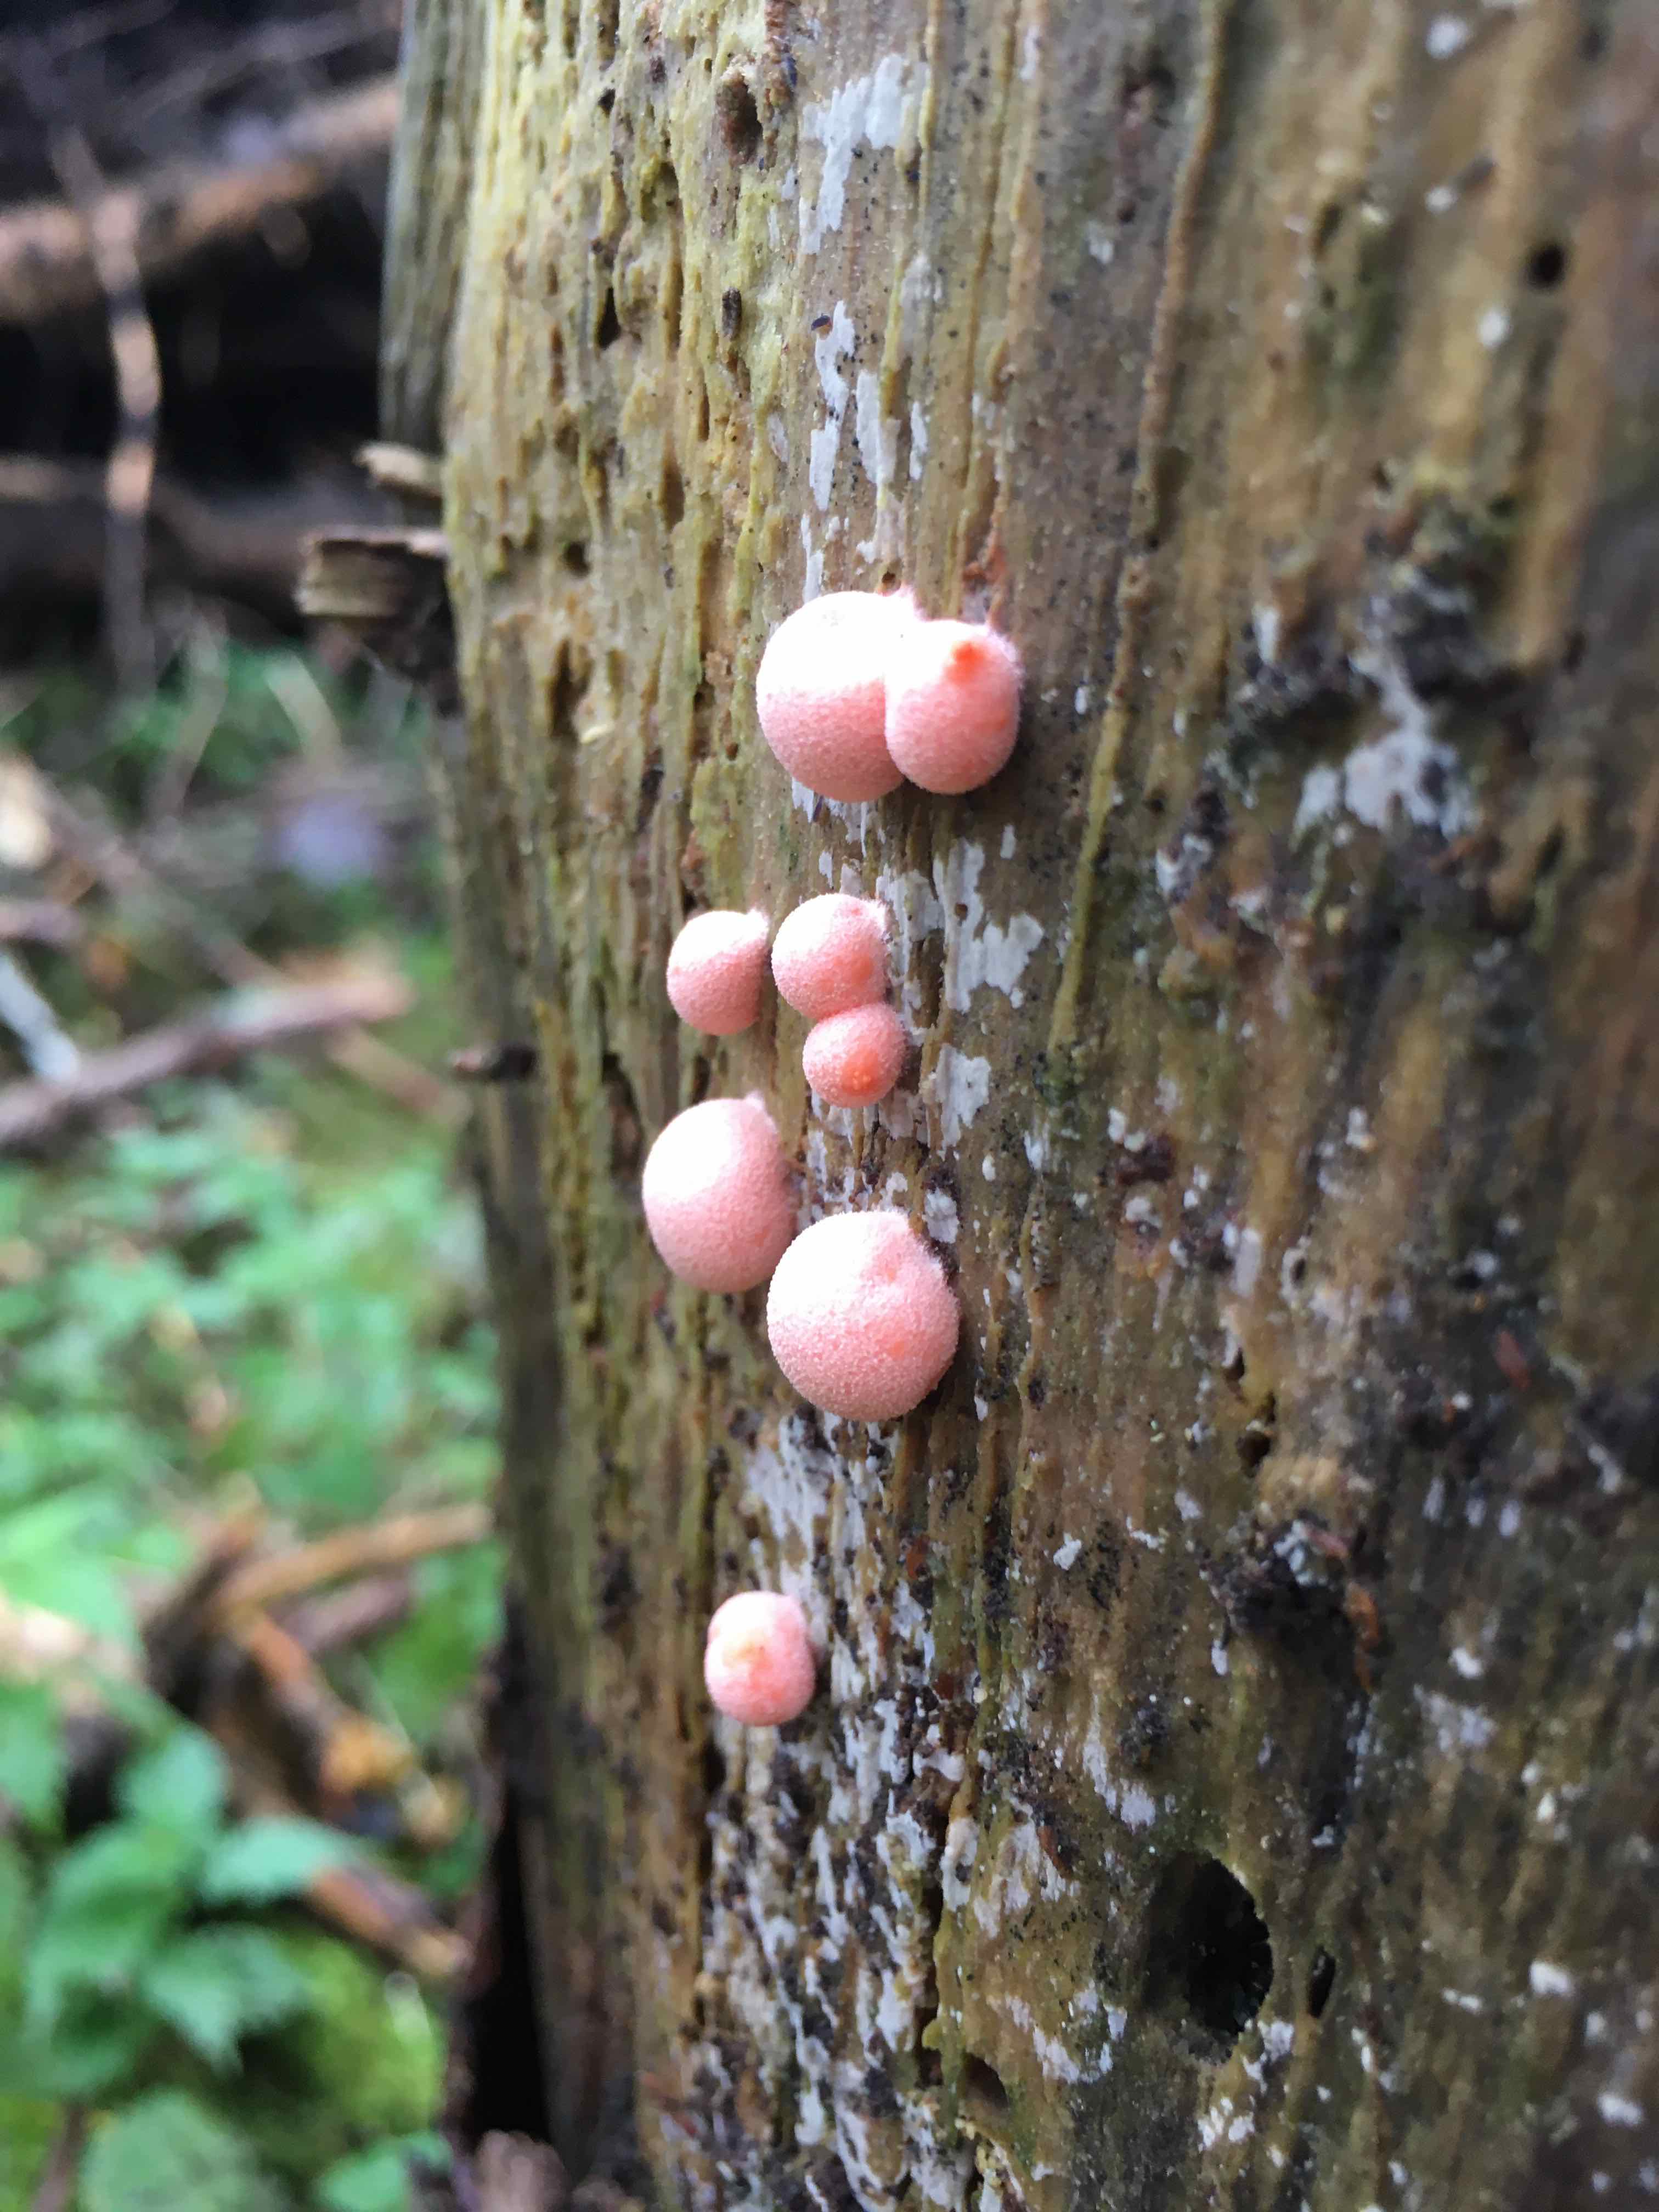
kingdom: Protozoa
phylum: Mycetozoa
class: Myxomycetes
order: Cribrariales
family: Tubiferaceae
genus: Lycogala
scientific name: Lycogala epidendrum
